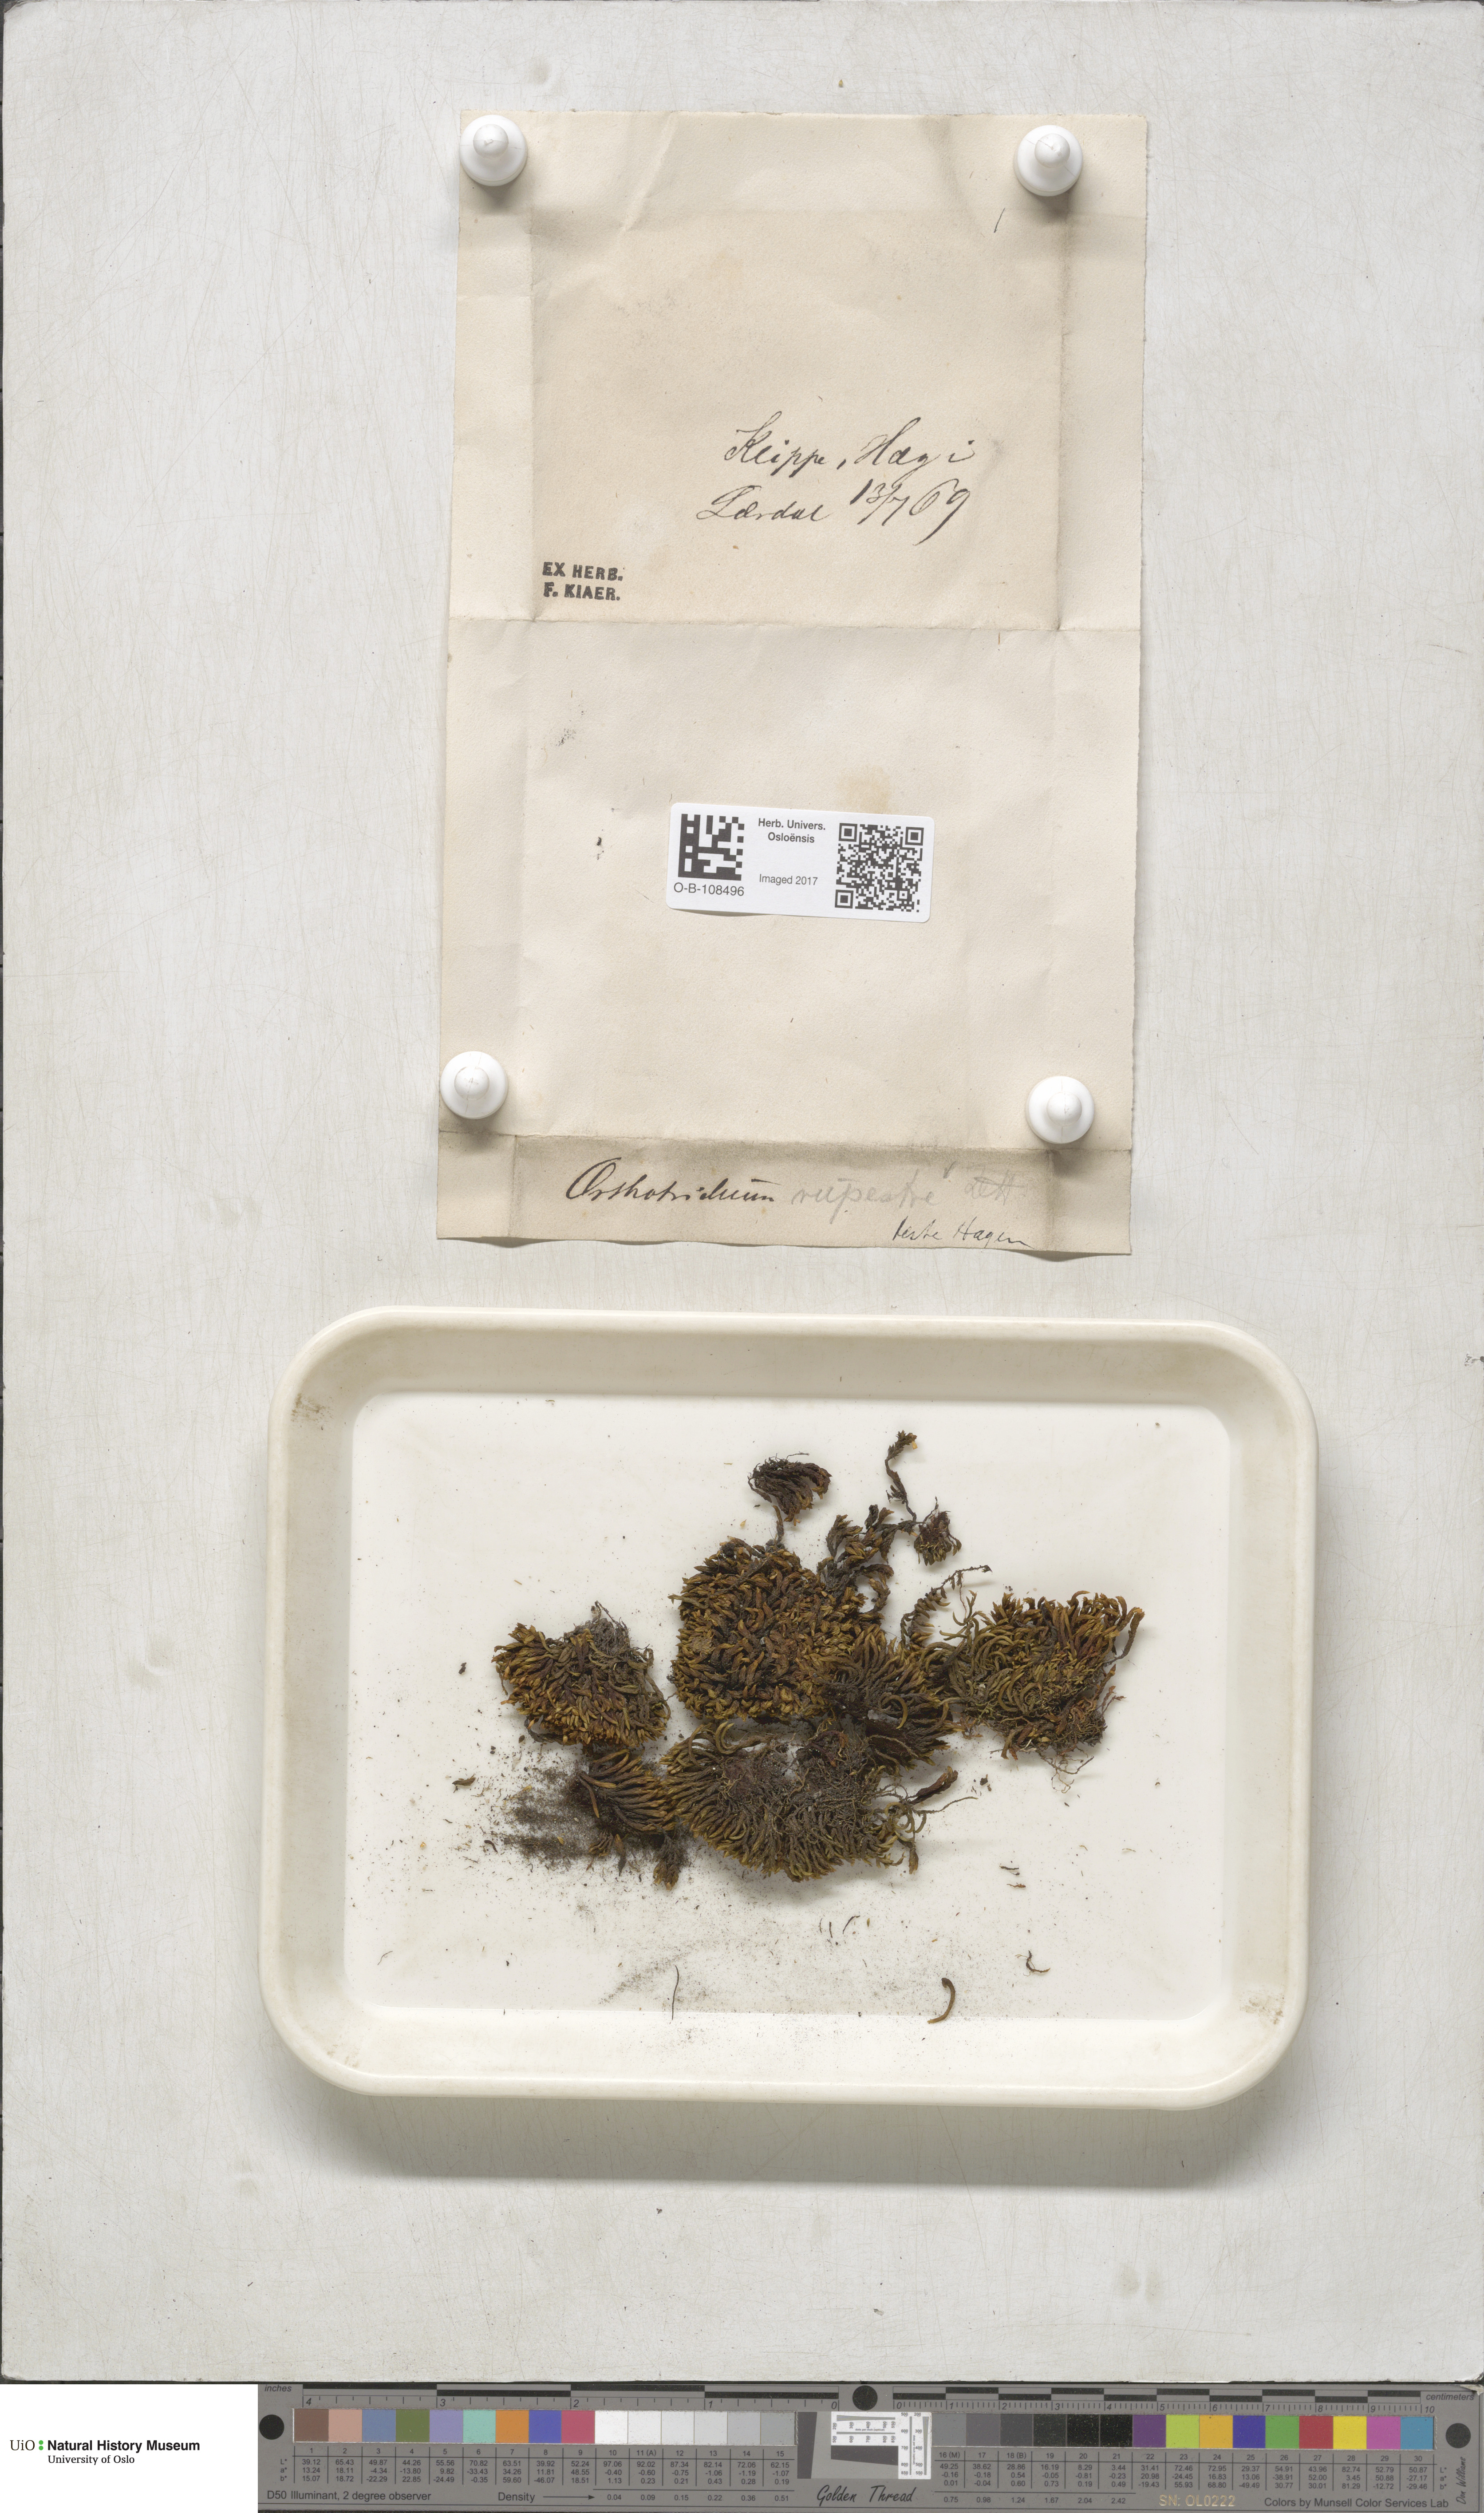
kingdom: Plantae
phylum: Bryophyta
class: Bryopsida
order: Orthotrichales
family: Orthotrichaceae
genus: Lewinskya
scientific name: Lewinskya rupestris
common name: Rock bristle-moss
